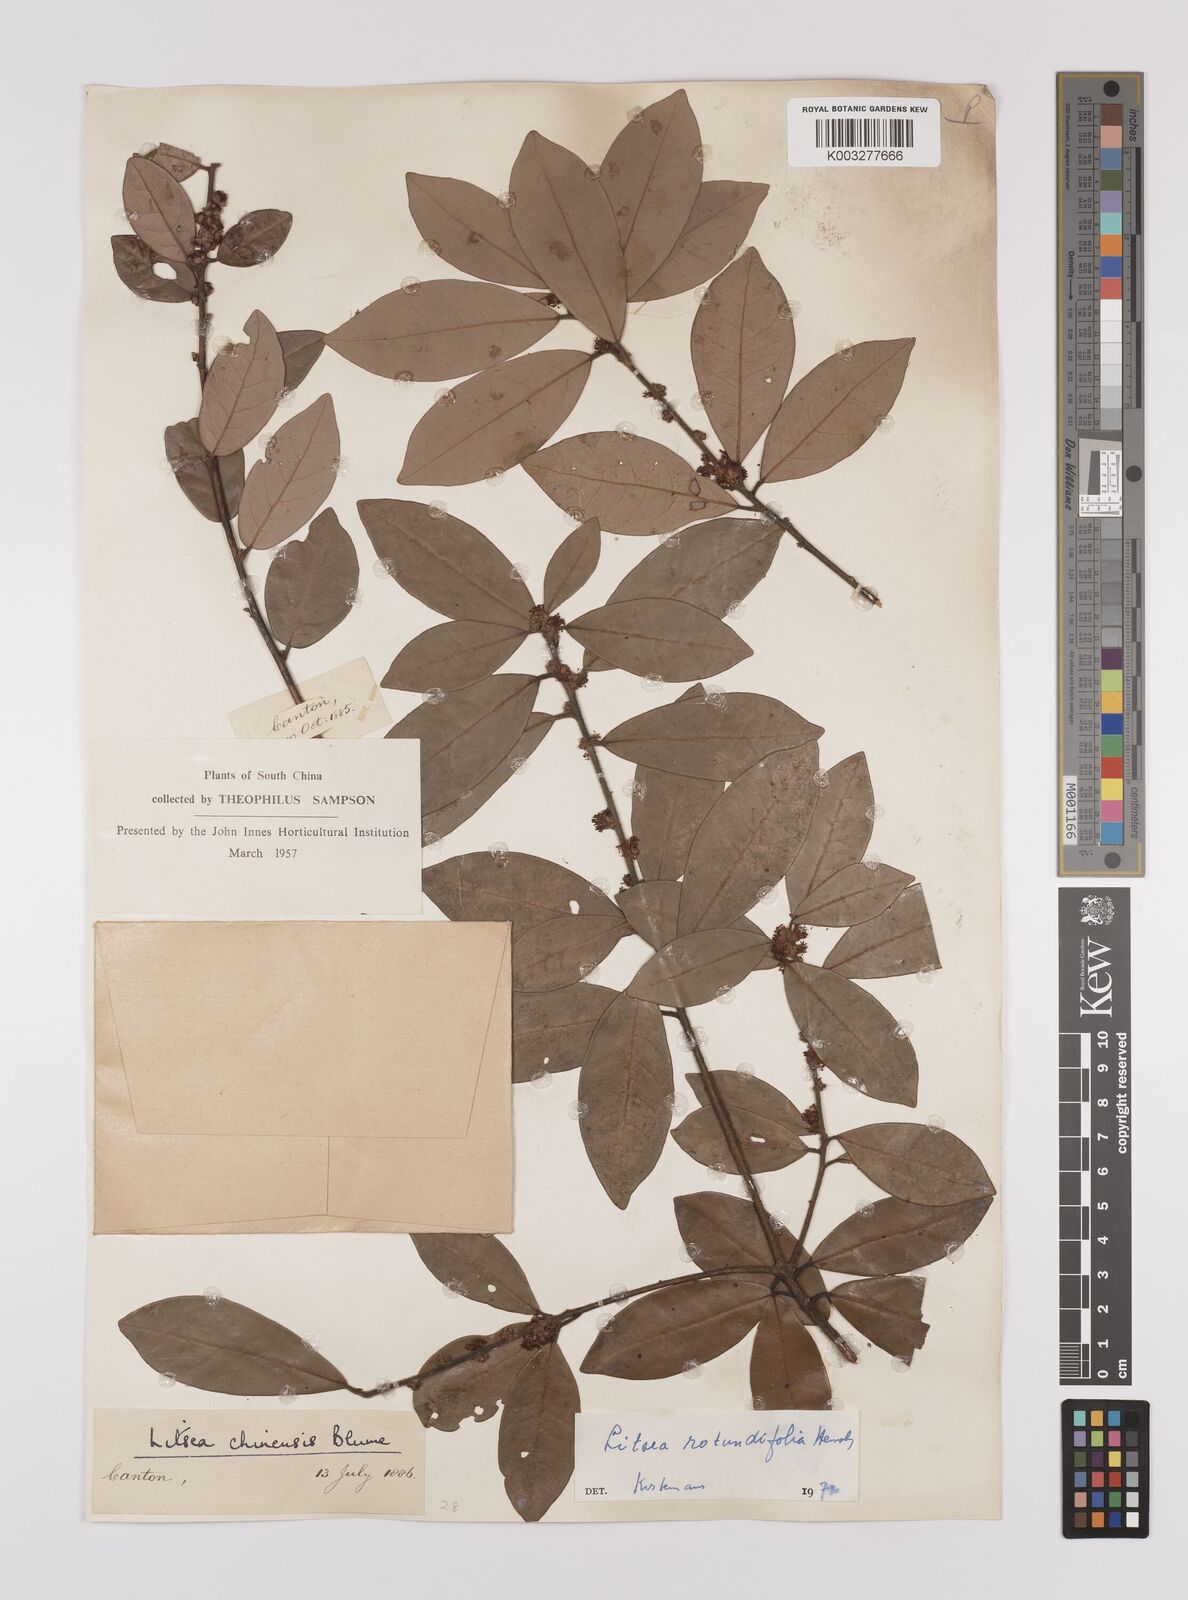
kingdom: Plantae
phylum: Tracheophyta
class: Magnoliopsida
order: Laurales
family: Lauraceae
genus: Litsea
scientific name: Litsea rotundifolia
